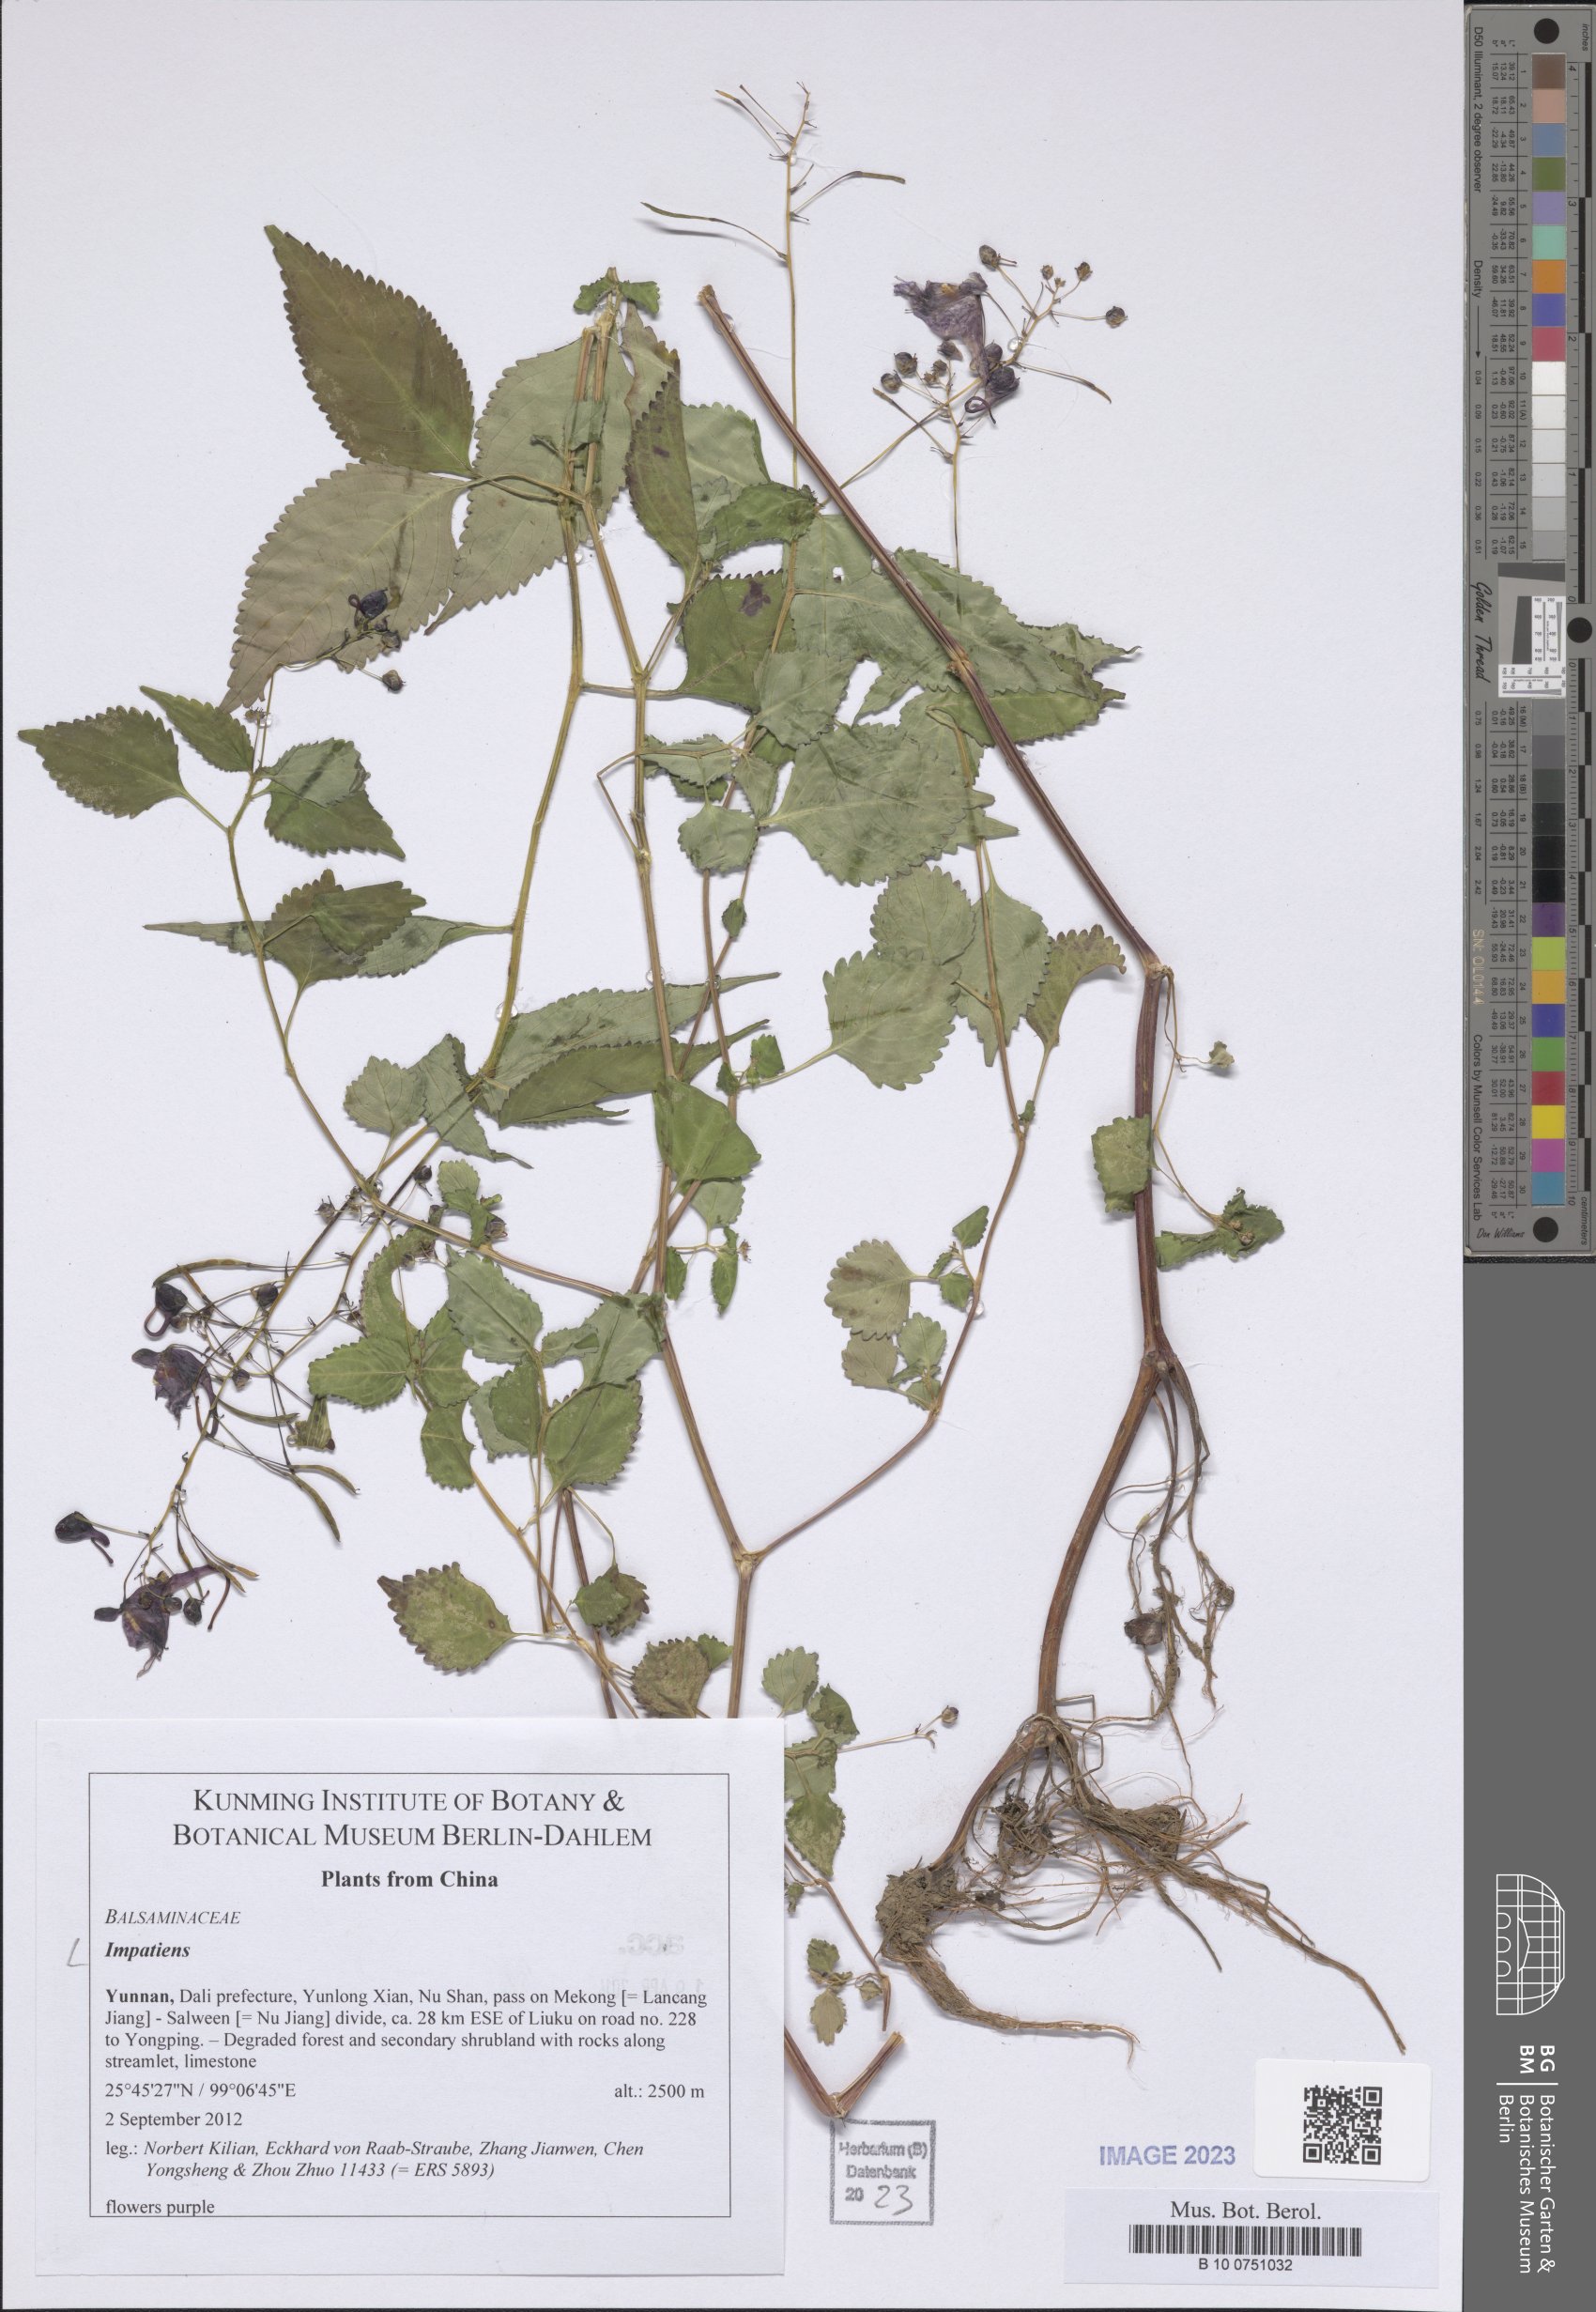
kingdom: Plantae
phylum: Tracheophyta
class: Magnoliopsida
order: Ericales
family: Balsaminaceae
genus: Impatiens
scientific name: Impatiens
